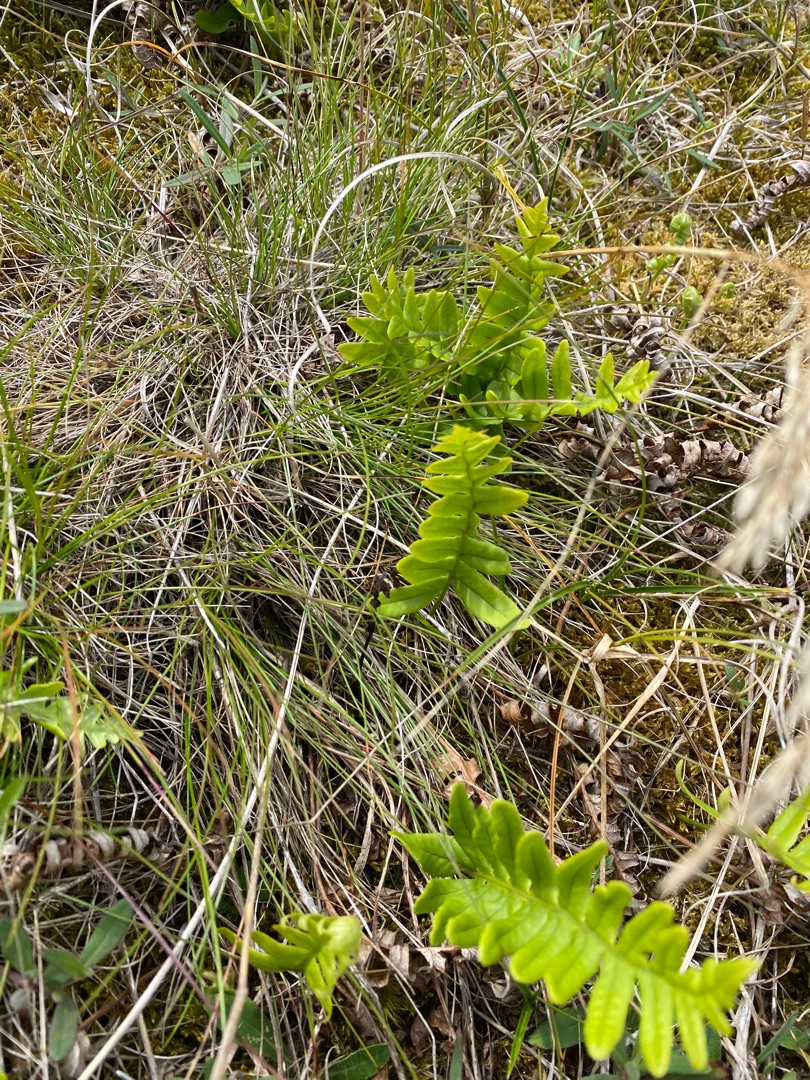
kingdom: Plantae
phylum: Tracheophyta
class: Polypodiopsida
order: Polypodiales
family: Polypodiaceae
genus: Polypodium
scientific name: Polypodium vulgare
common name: Almindelig engelsød
